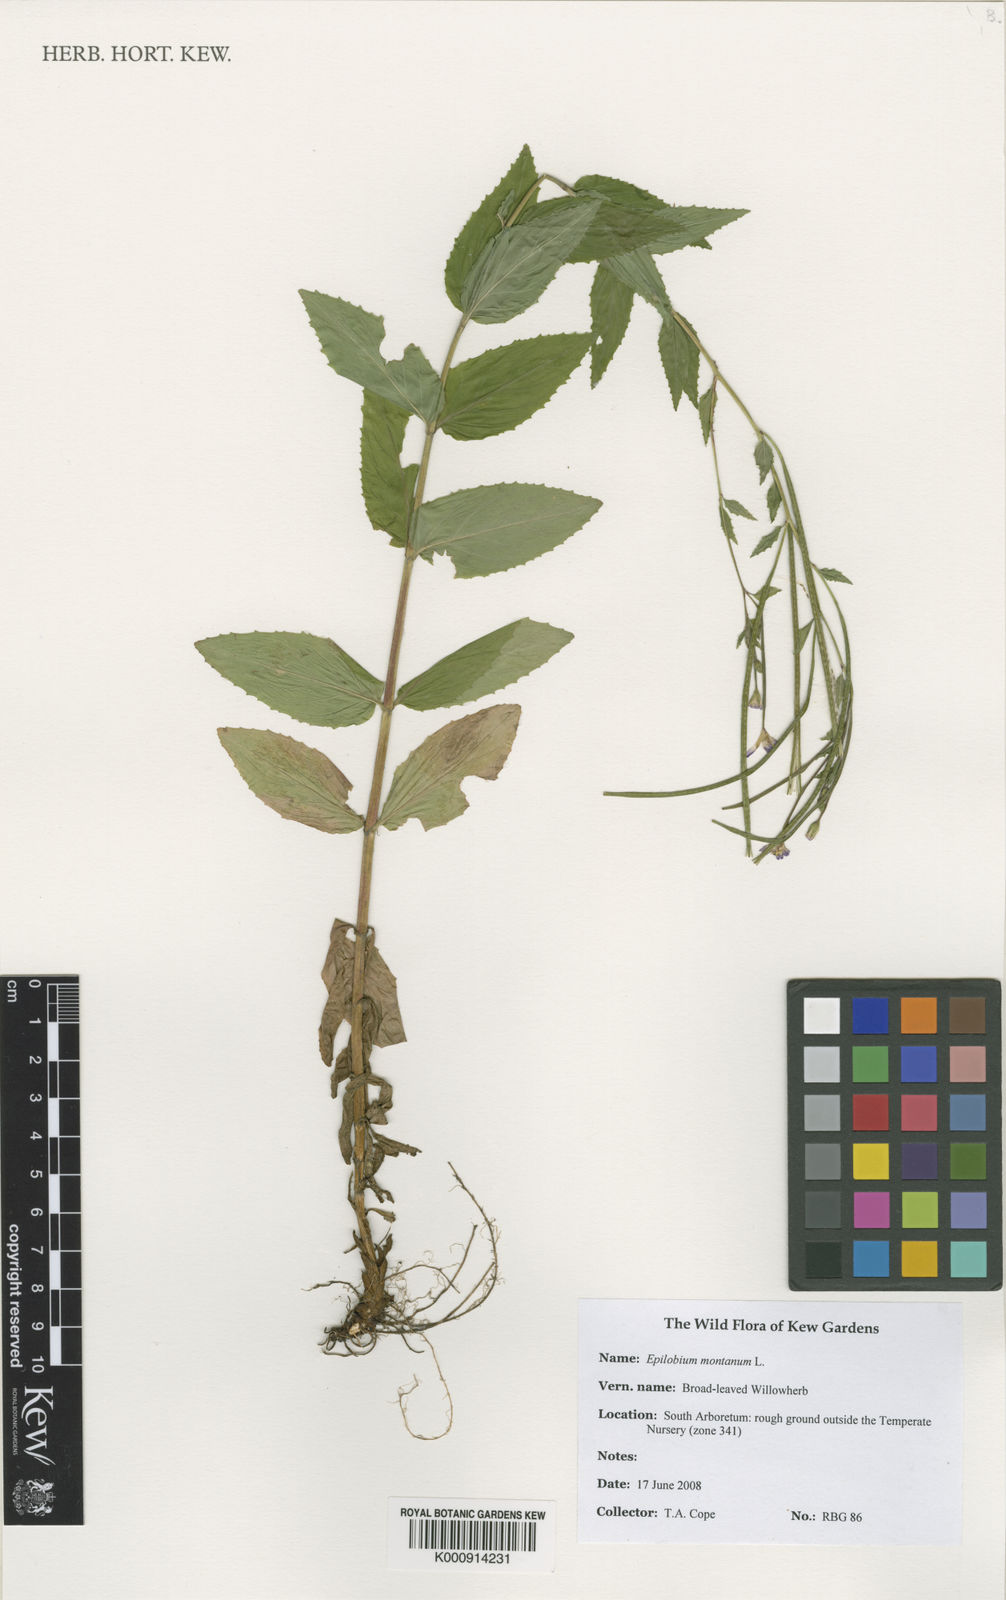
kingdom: Plantae
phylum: Tracheophyta
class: Magnoliopsida
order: Myrtales
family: Onagraceae
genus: Epilobium
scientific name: Epilobium montanum
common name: Broad-leaved willowherb
